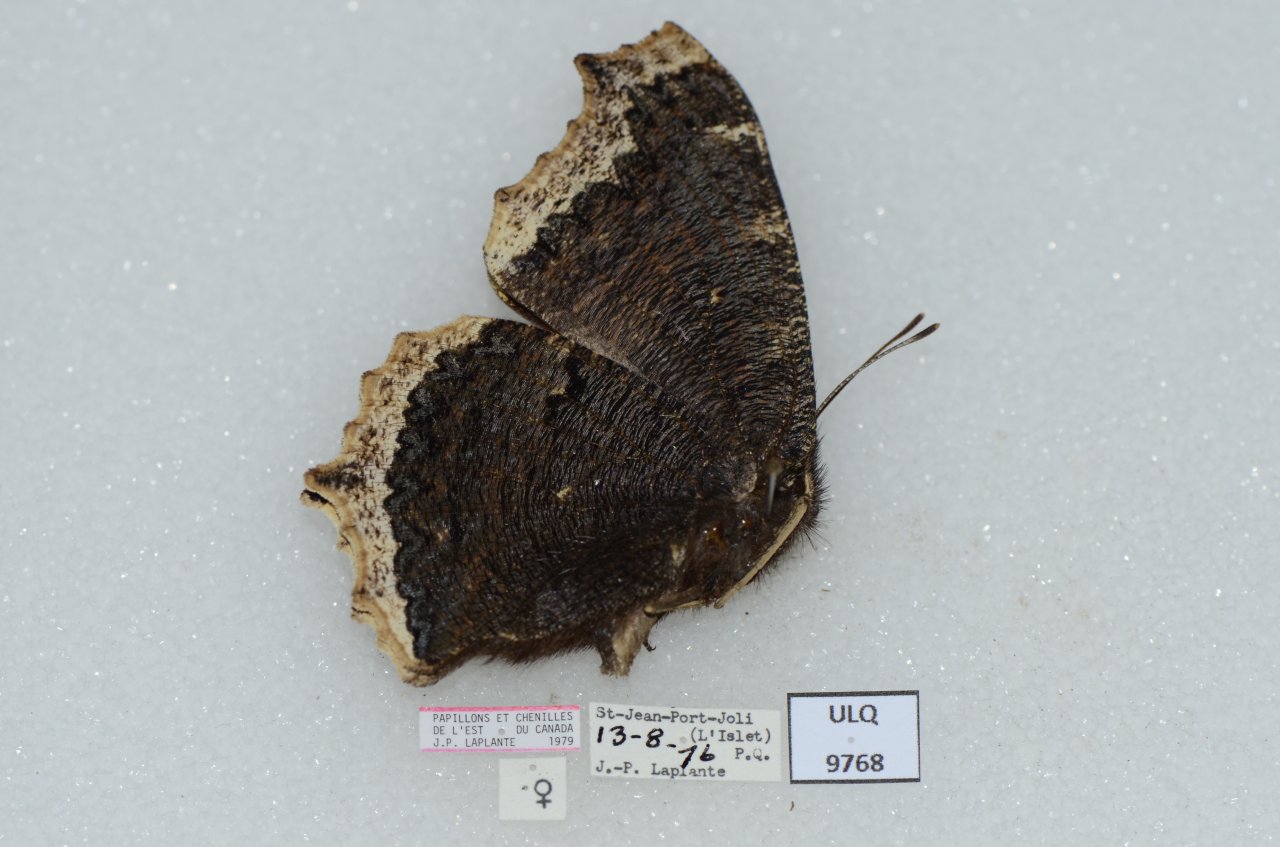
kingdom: Animalia
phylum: Arthropoda
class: Insecta
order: Lepidoptera
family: Nymphalidae
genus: Nymphalis
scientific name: Nymphalis antiopa
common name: Mourning Cloak
